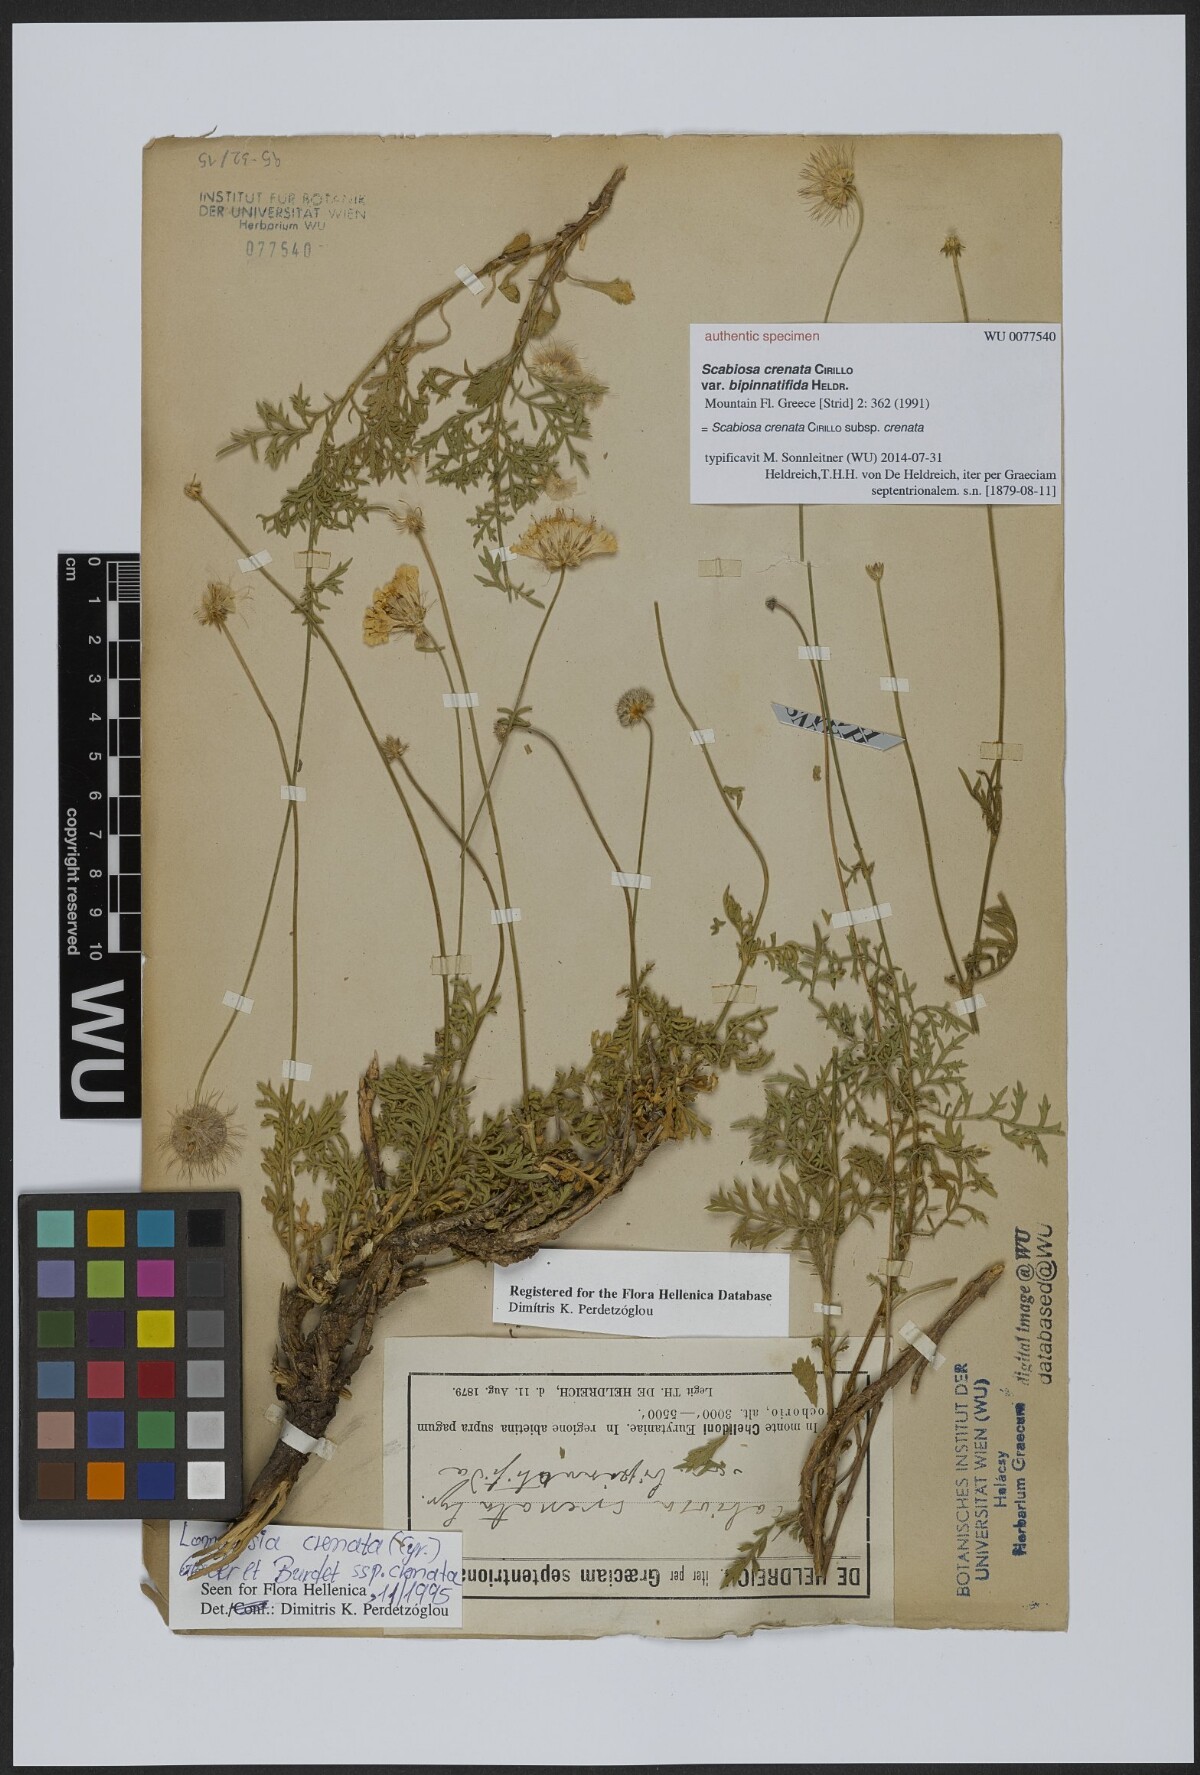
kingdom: Plantae
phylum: Tracheophyta
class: Magnoliopsida
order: Dipsacales
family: Caprifoliaceae
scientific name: Caprifoliaceae
